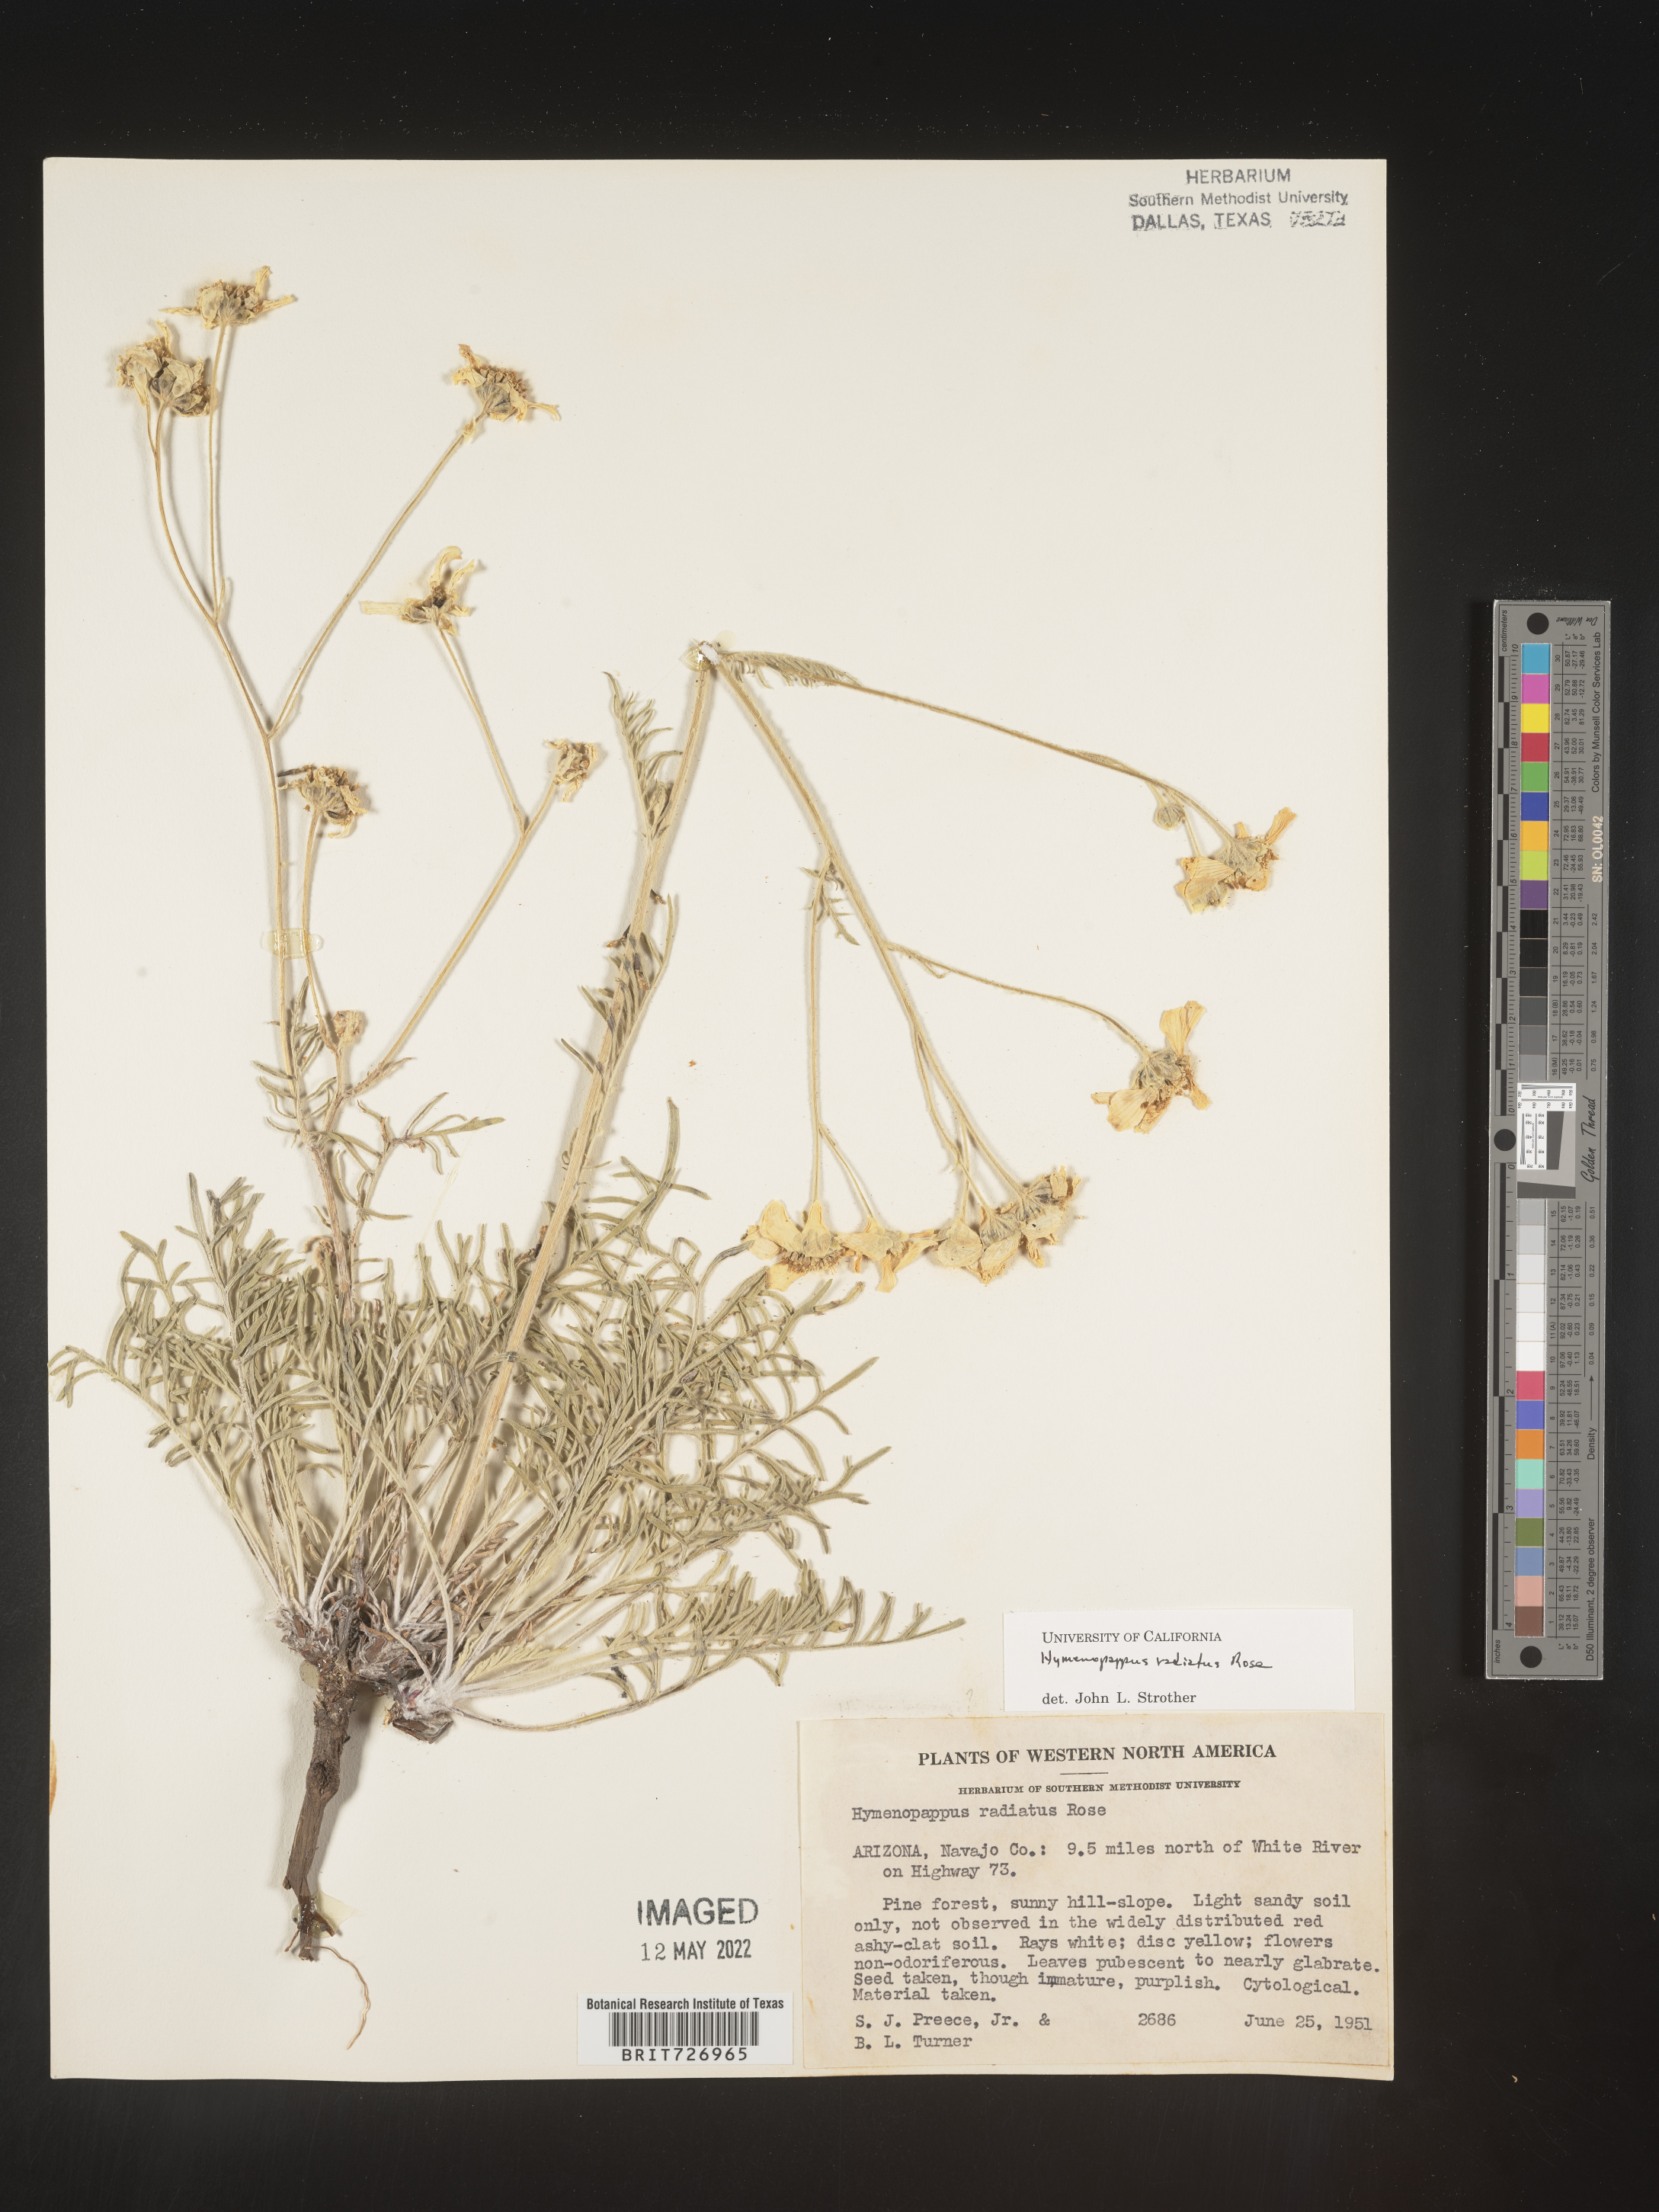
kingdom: Plantae
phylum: Tracheophyta
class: Magnoliopsida
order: Asterales
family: Asteraceae
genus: Hymenopappus
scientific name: Hymenopappus radiatus
